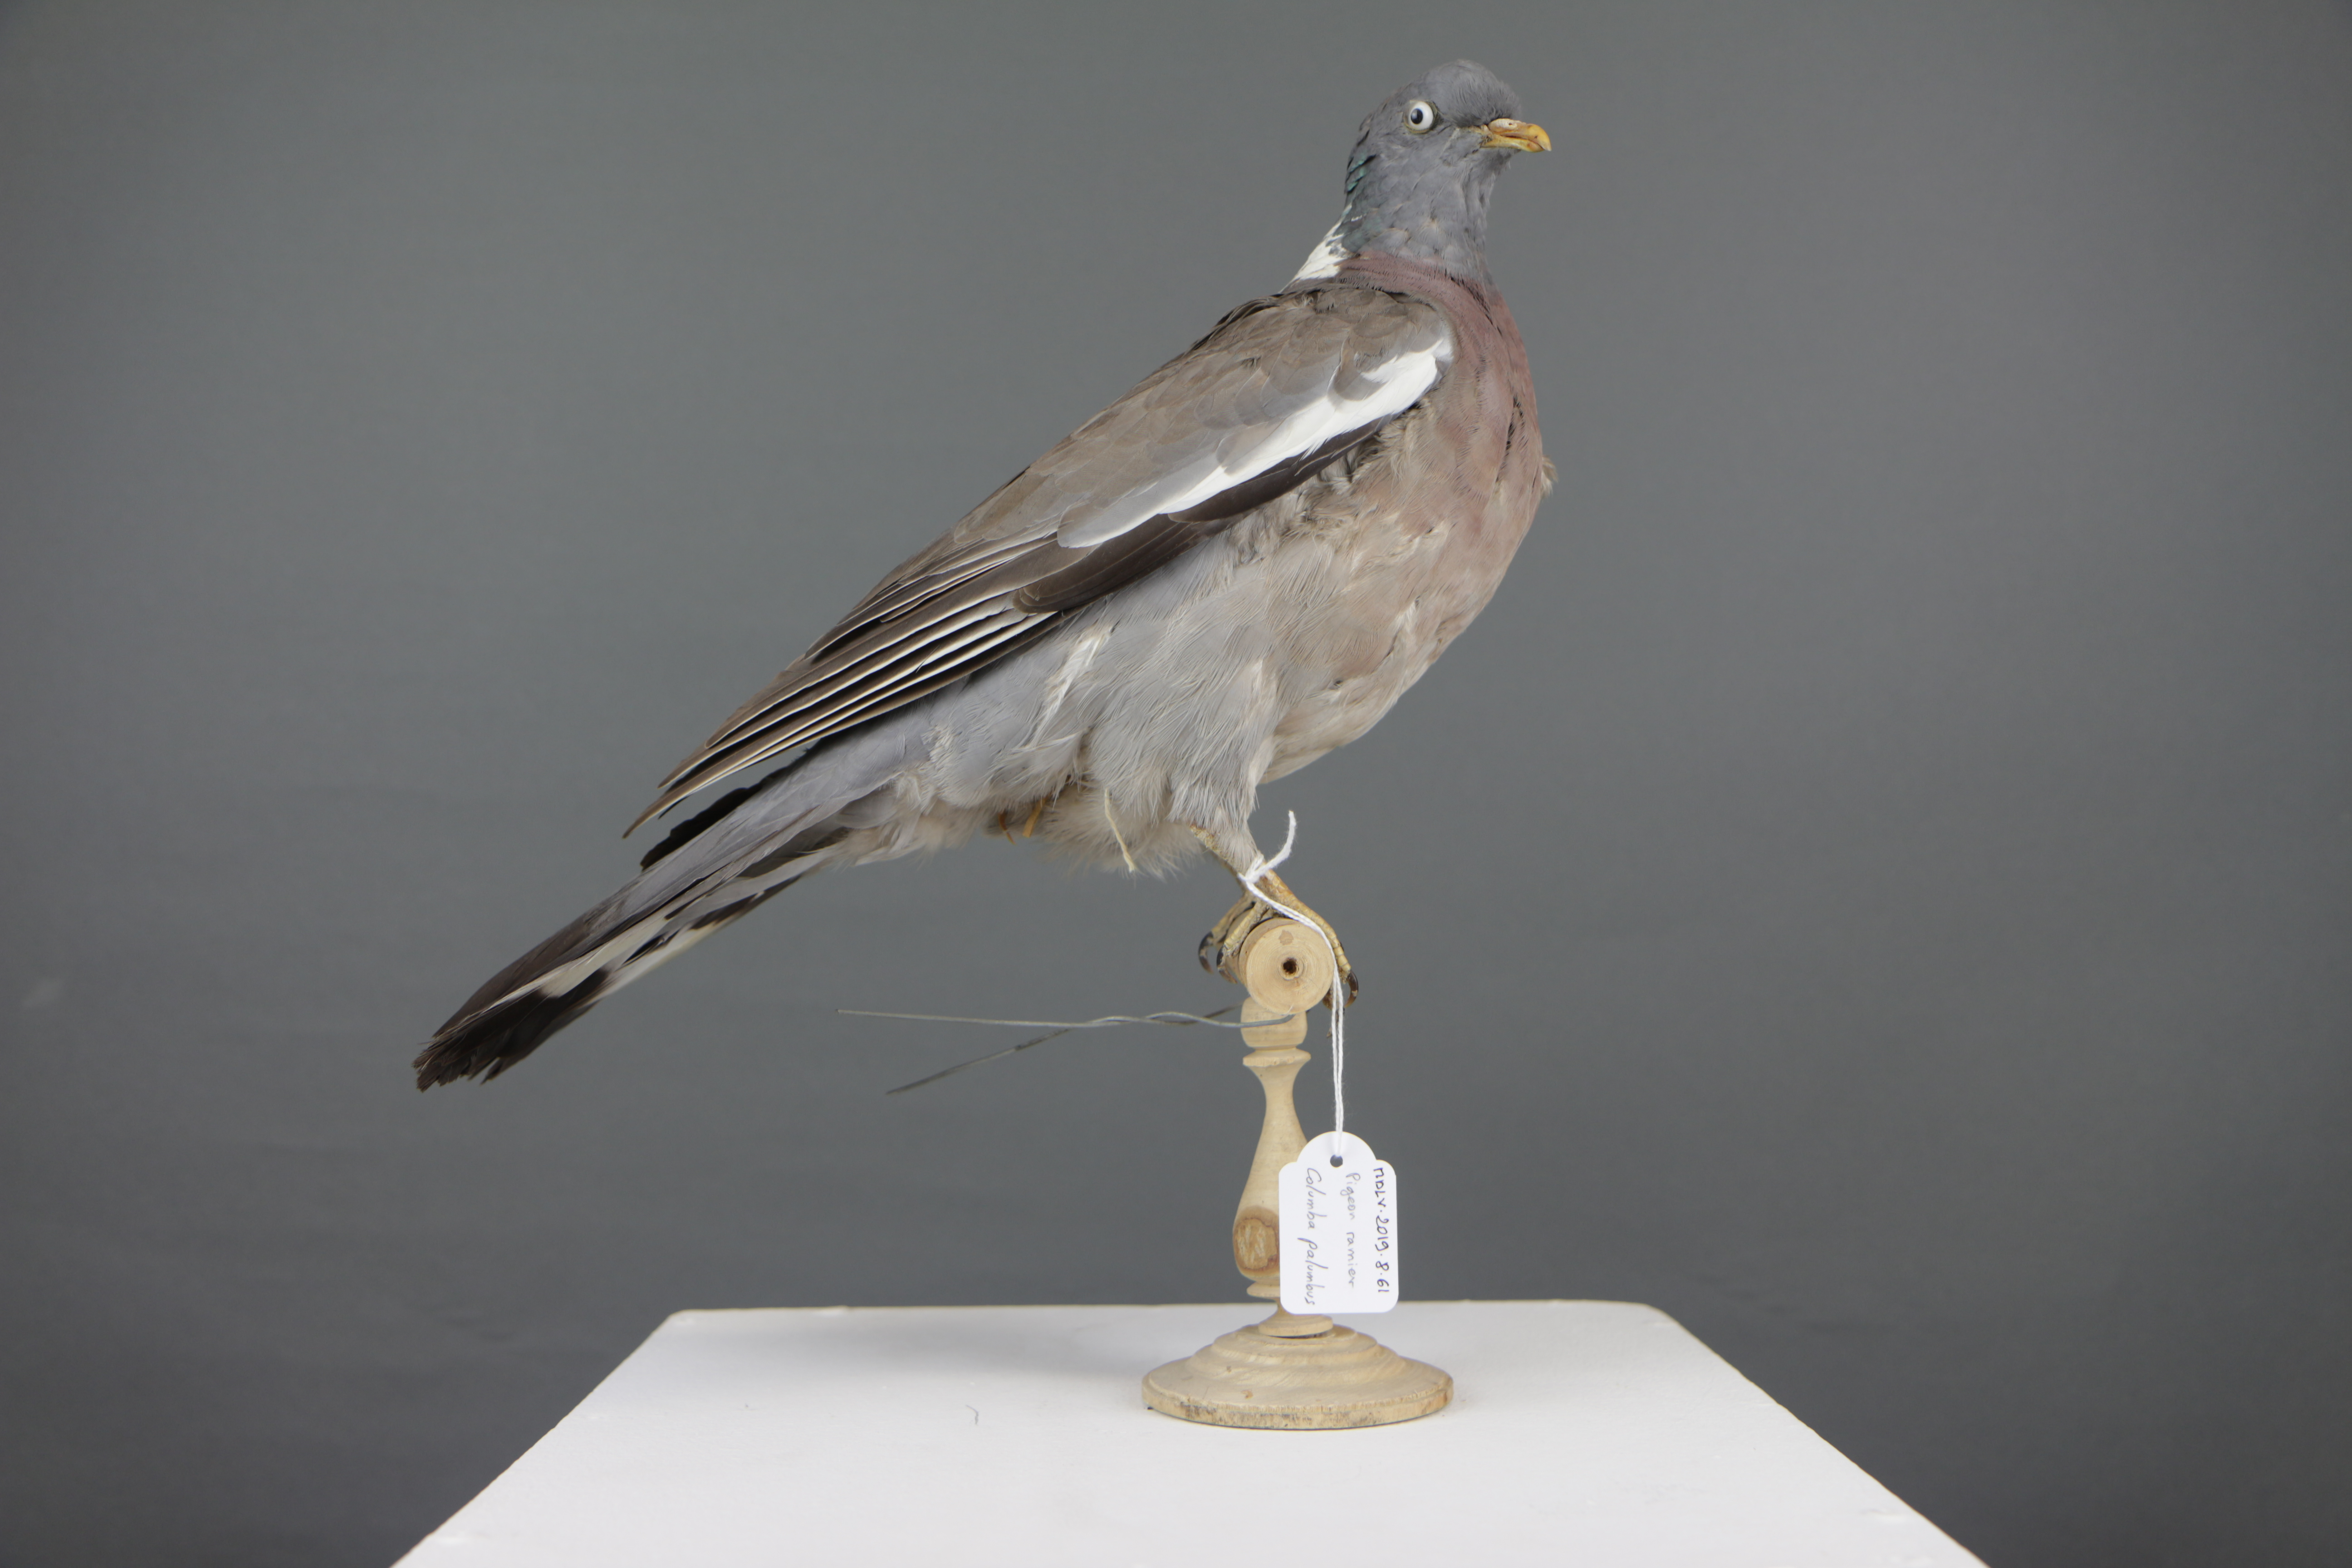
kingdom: Animalia
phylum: Chordata
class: Aves
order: Columbiformes
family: Columbidae
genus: Columba
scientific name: Columba palumbus
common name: Common wood pigeon
